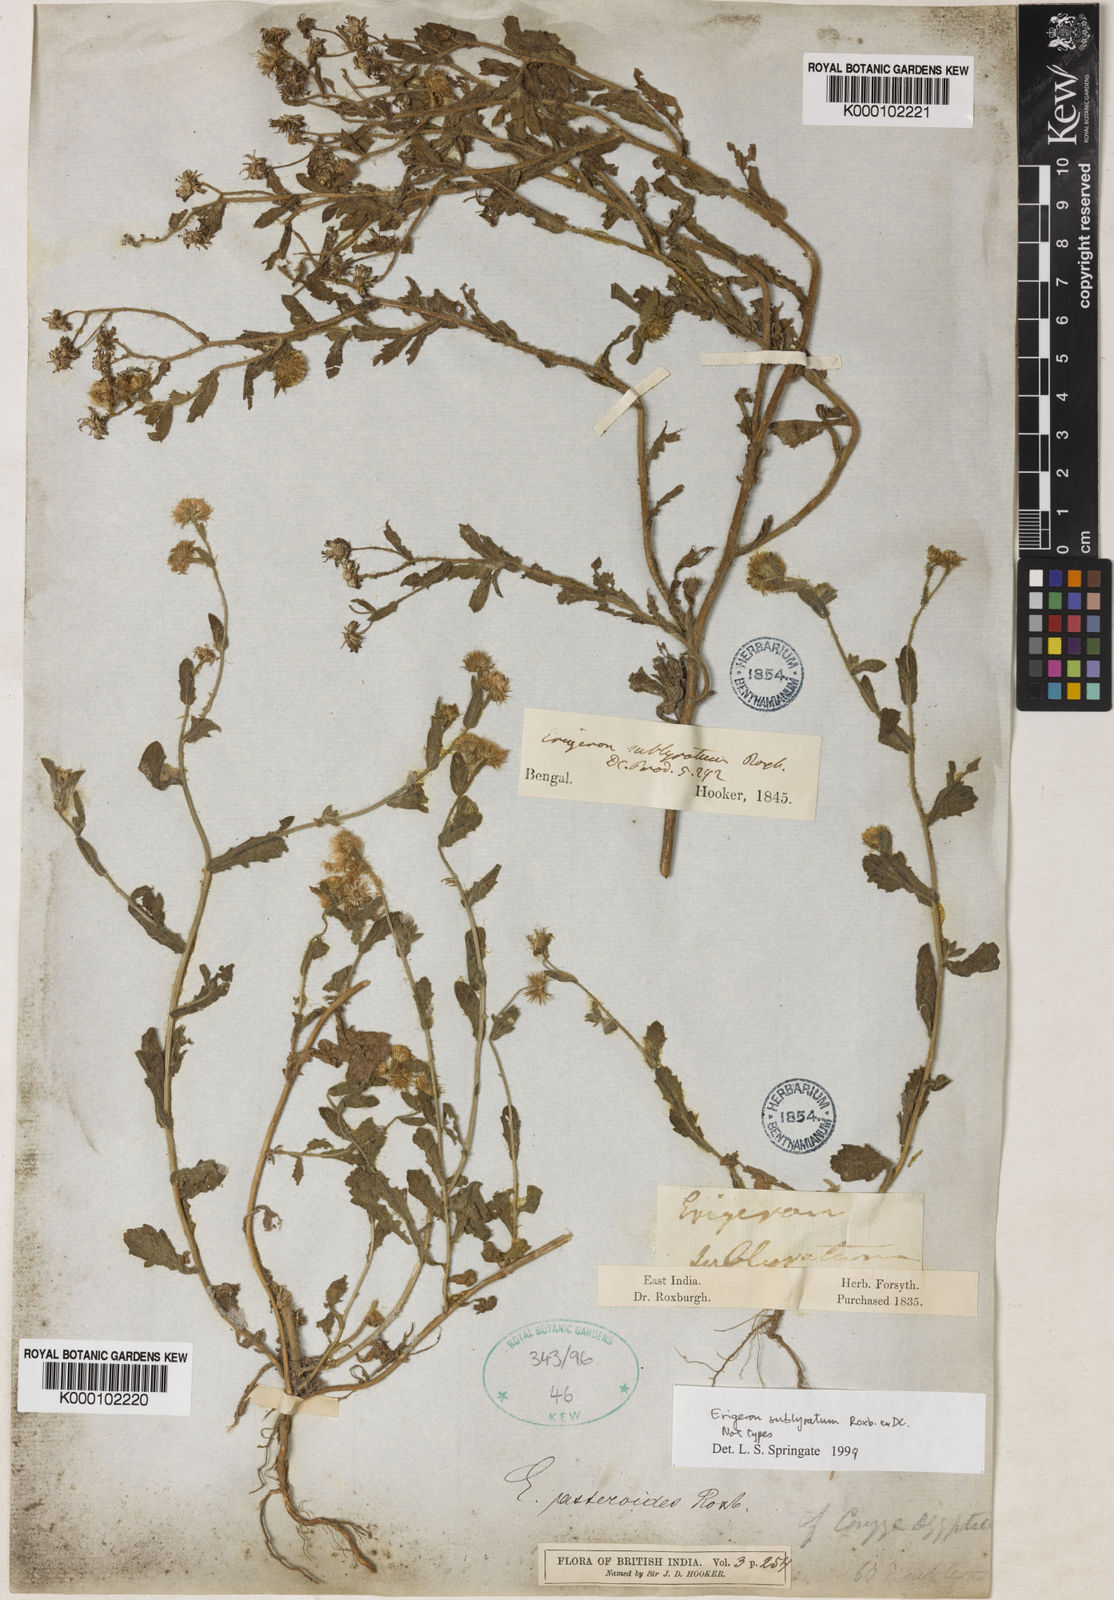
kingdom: Plantae
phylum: Tracheophyta
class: Magnoliopsida
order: Asterales
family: Asteraceae
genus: Blumea
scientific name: Blumea obliqua
